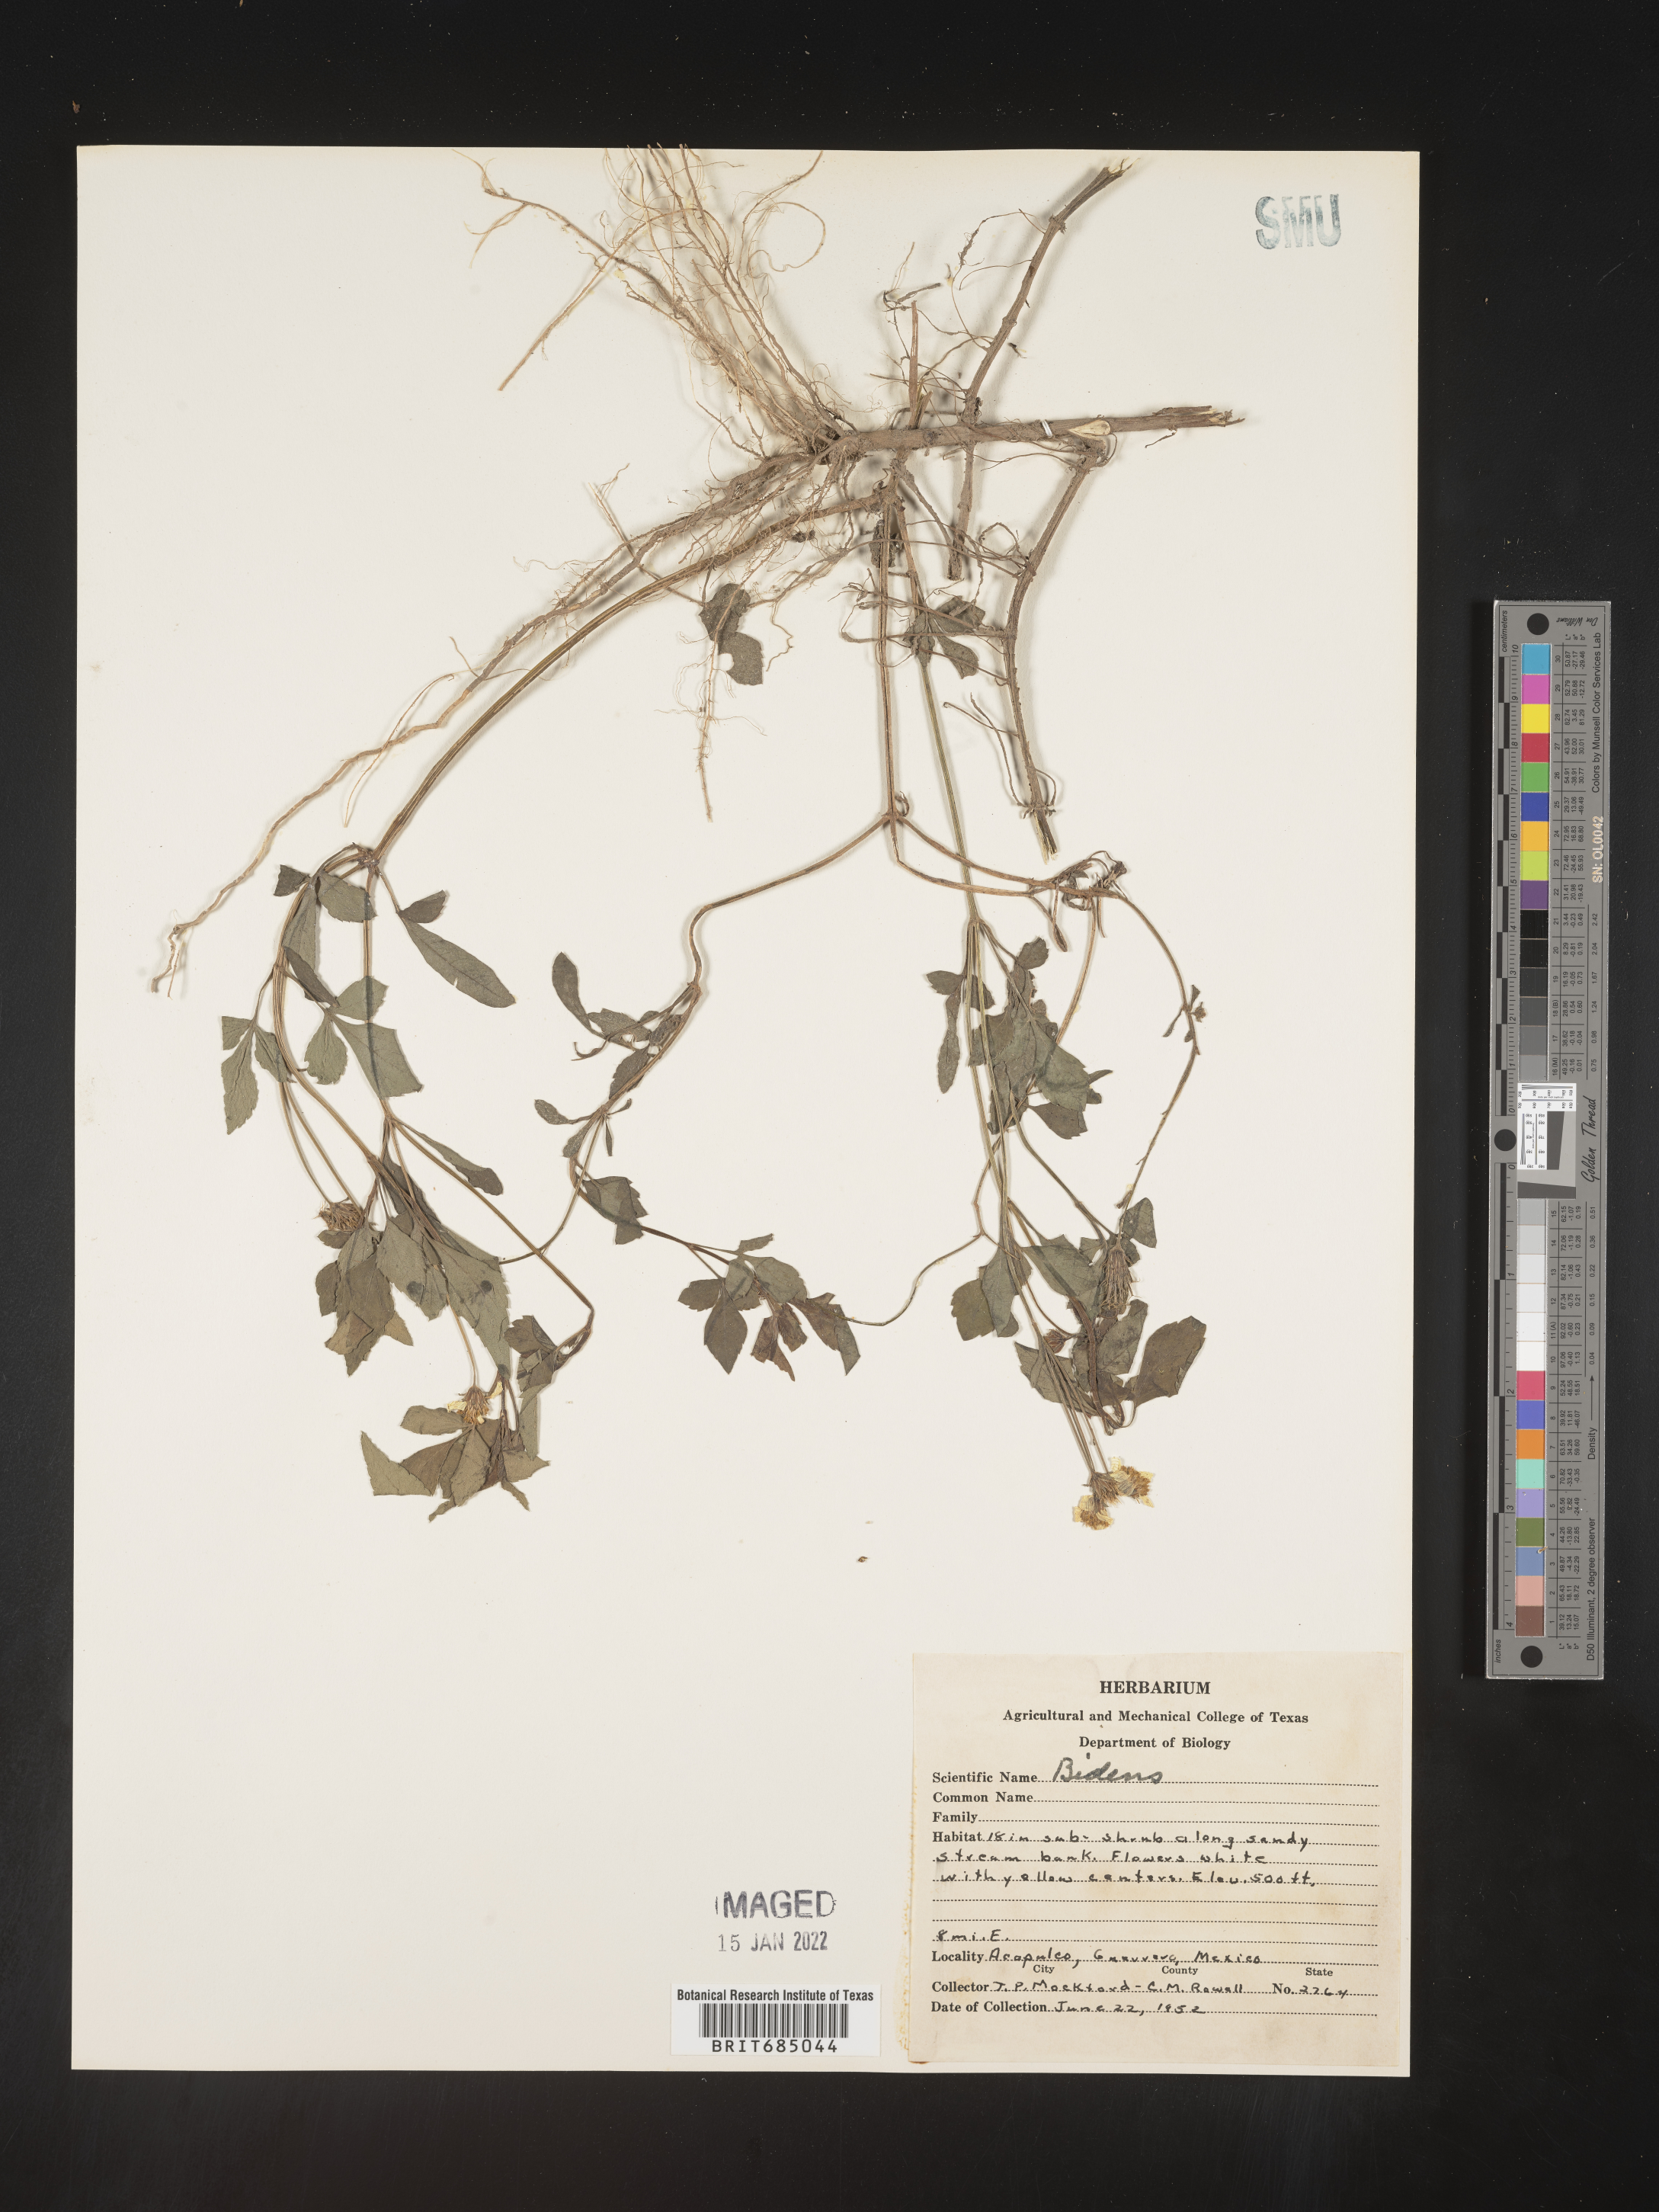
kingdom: Plantae
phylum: Tracheophyta
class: Magnoliopsida
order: Asterales
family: Asteraceae
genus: Bidens
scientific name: Bidens
